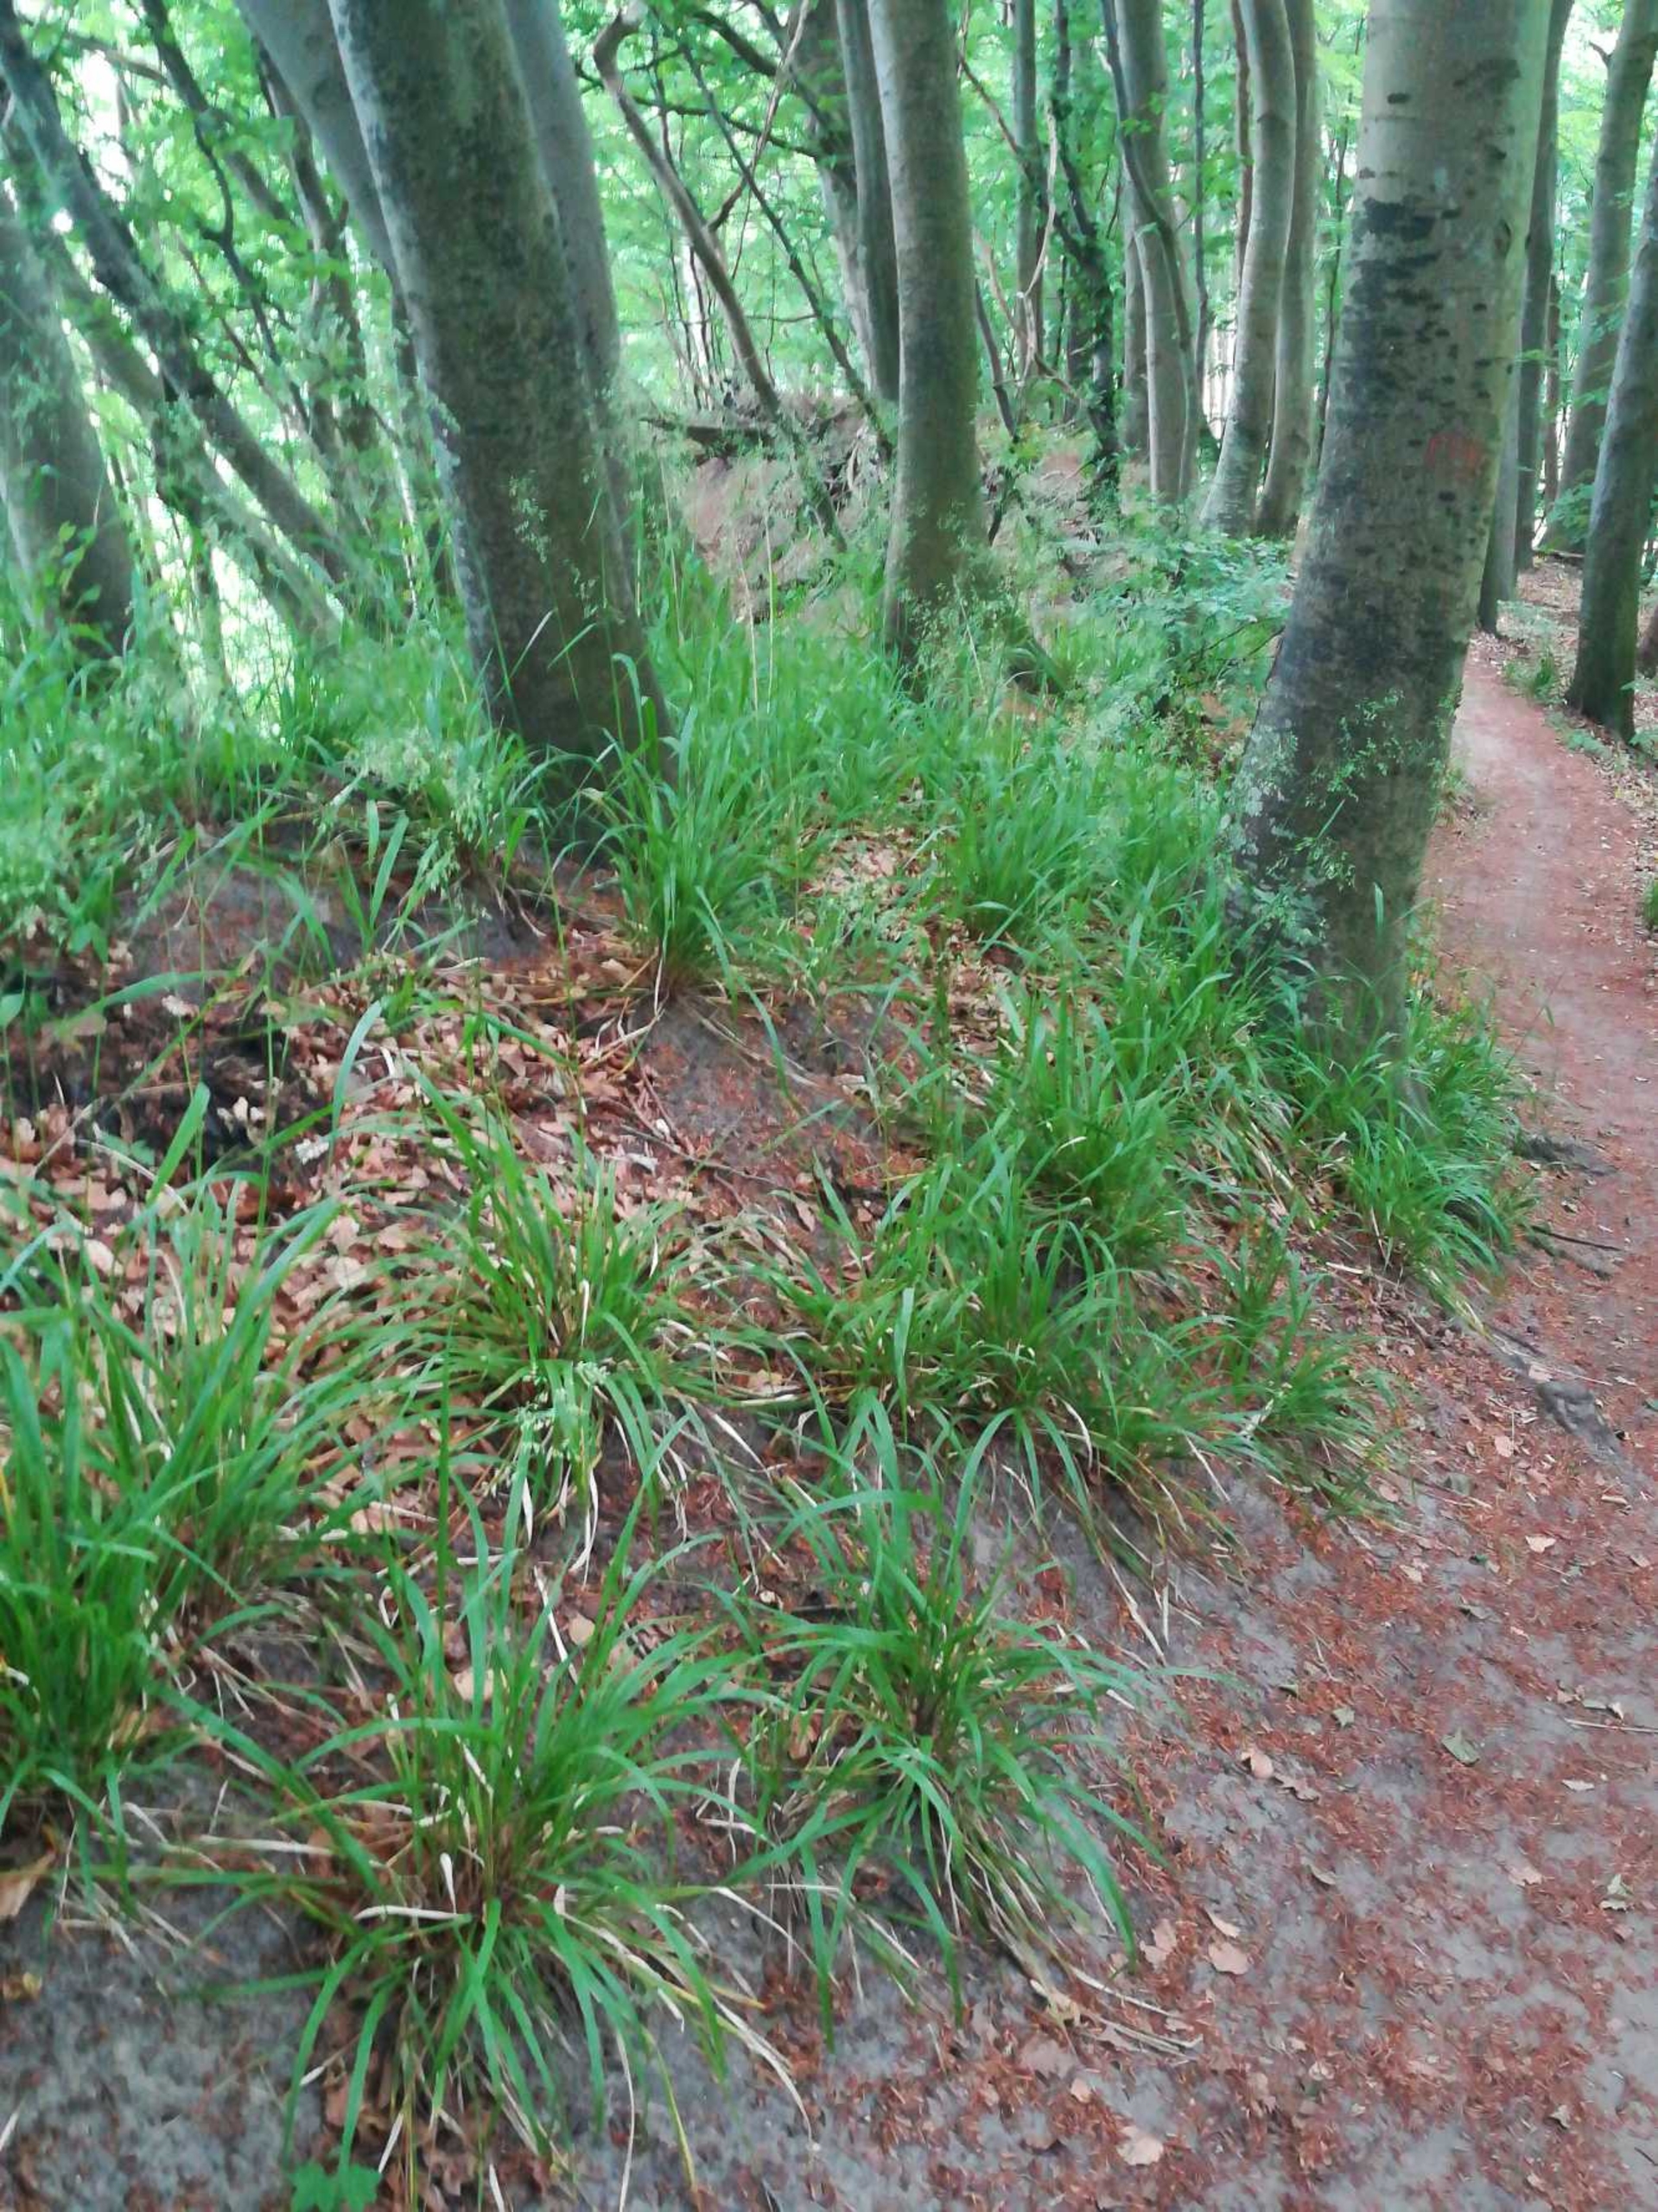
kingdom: Plantae
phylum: Tracheophyta
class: Liliopsida
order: Poales
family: Poaceae
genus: Festuca
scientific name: Festuca altissima
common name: Skov-svingel
